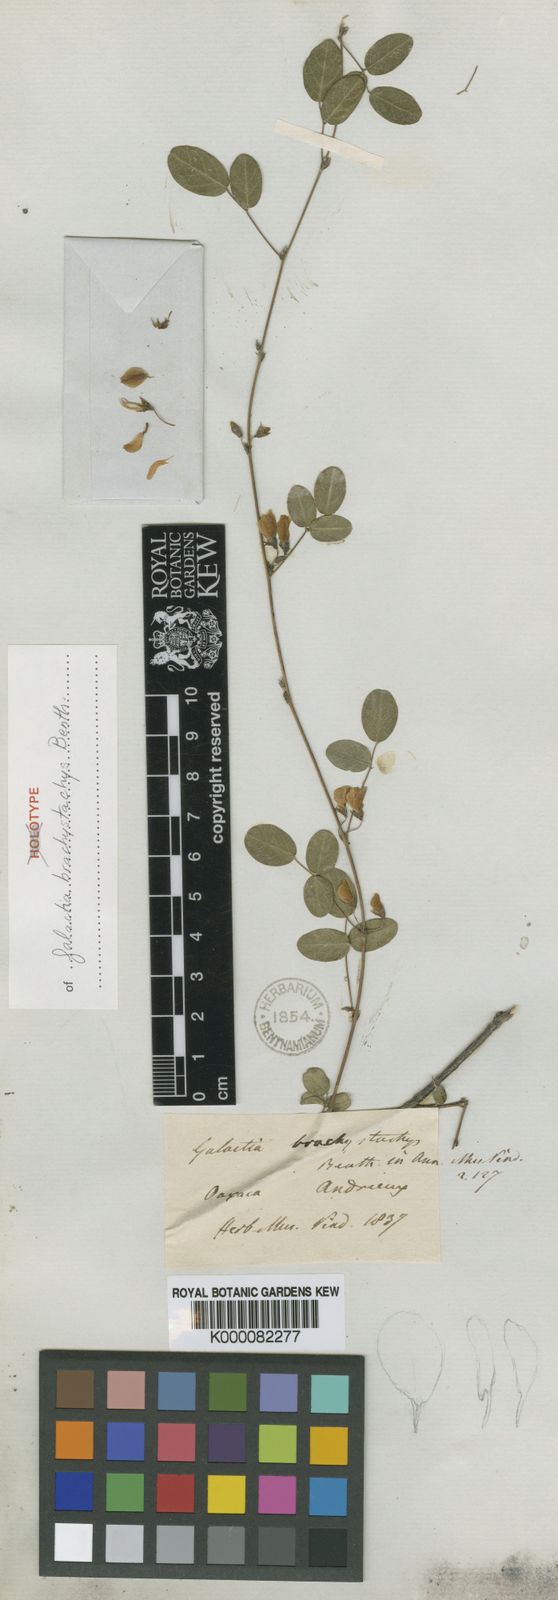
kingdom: Plantae
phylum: Tracheophyta
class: Magnoliopsida
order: Fabales
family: Fabaceae
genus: Nanogalactia
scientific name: Nanogalactia brachystachys
